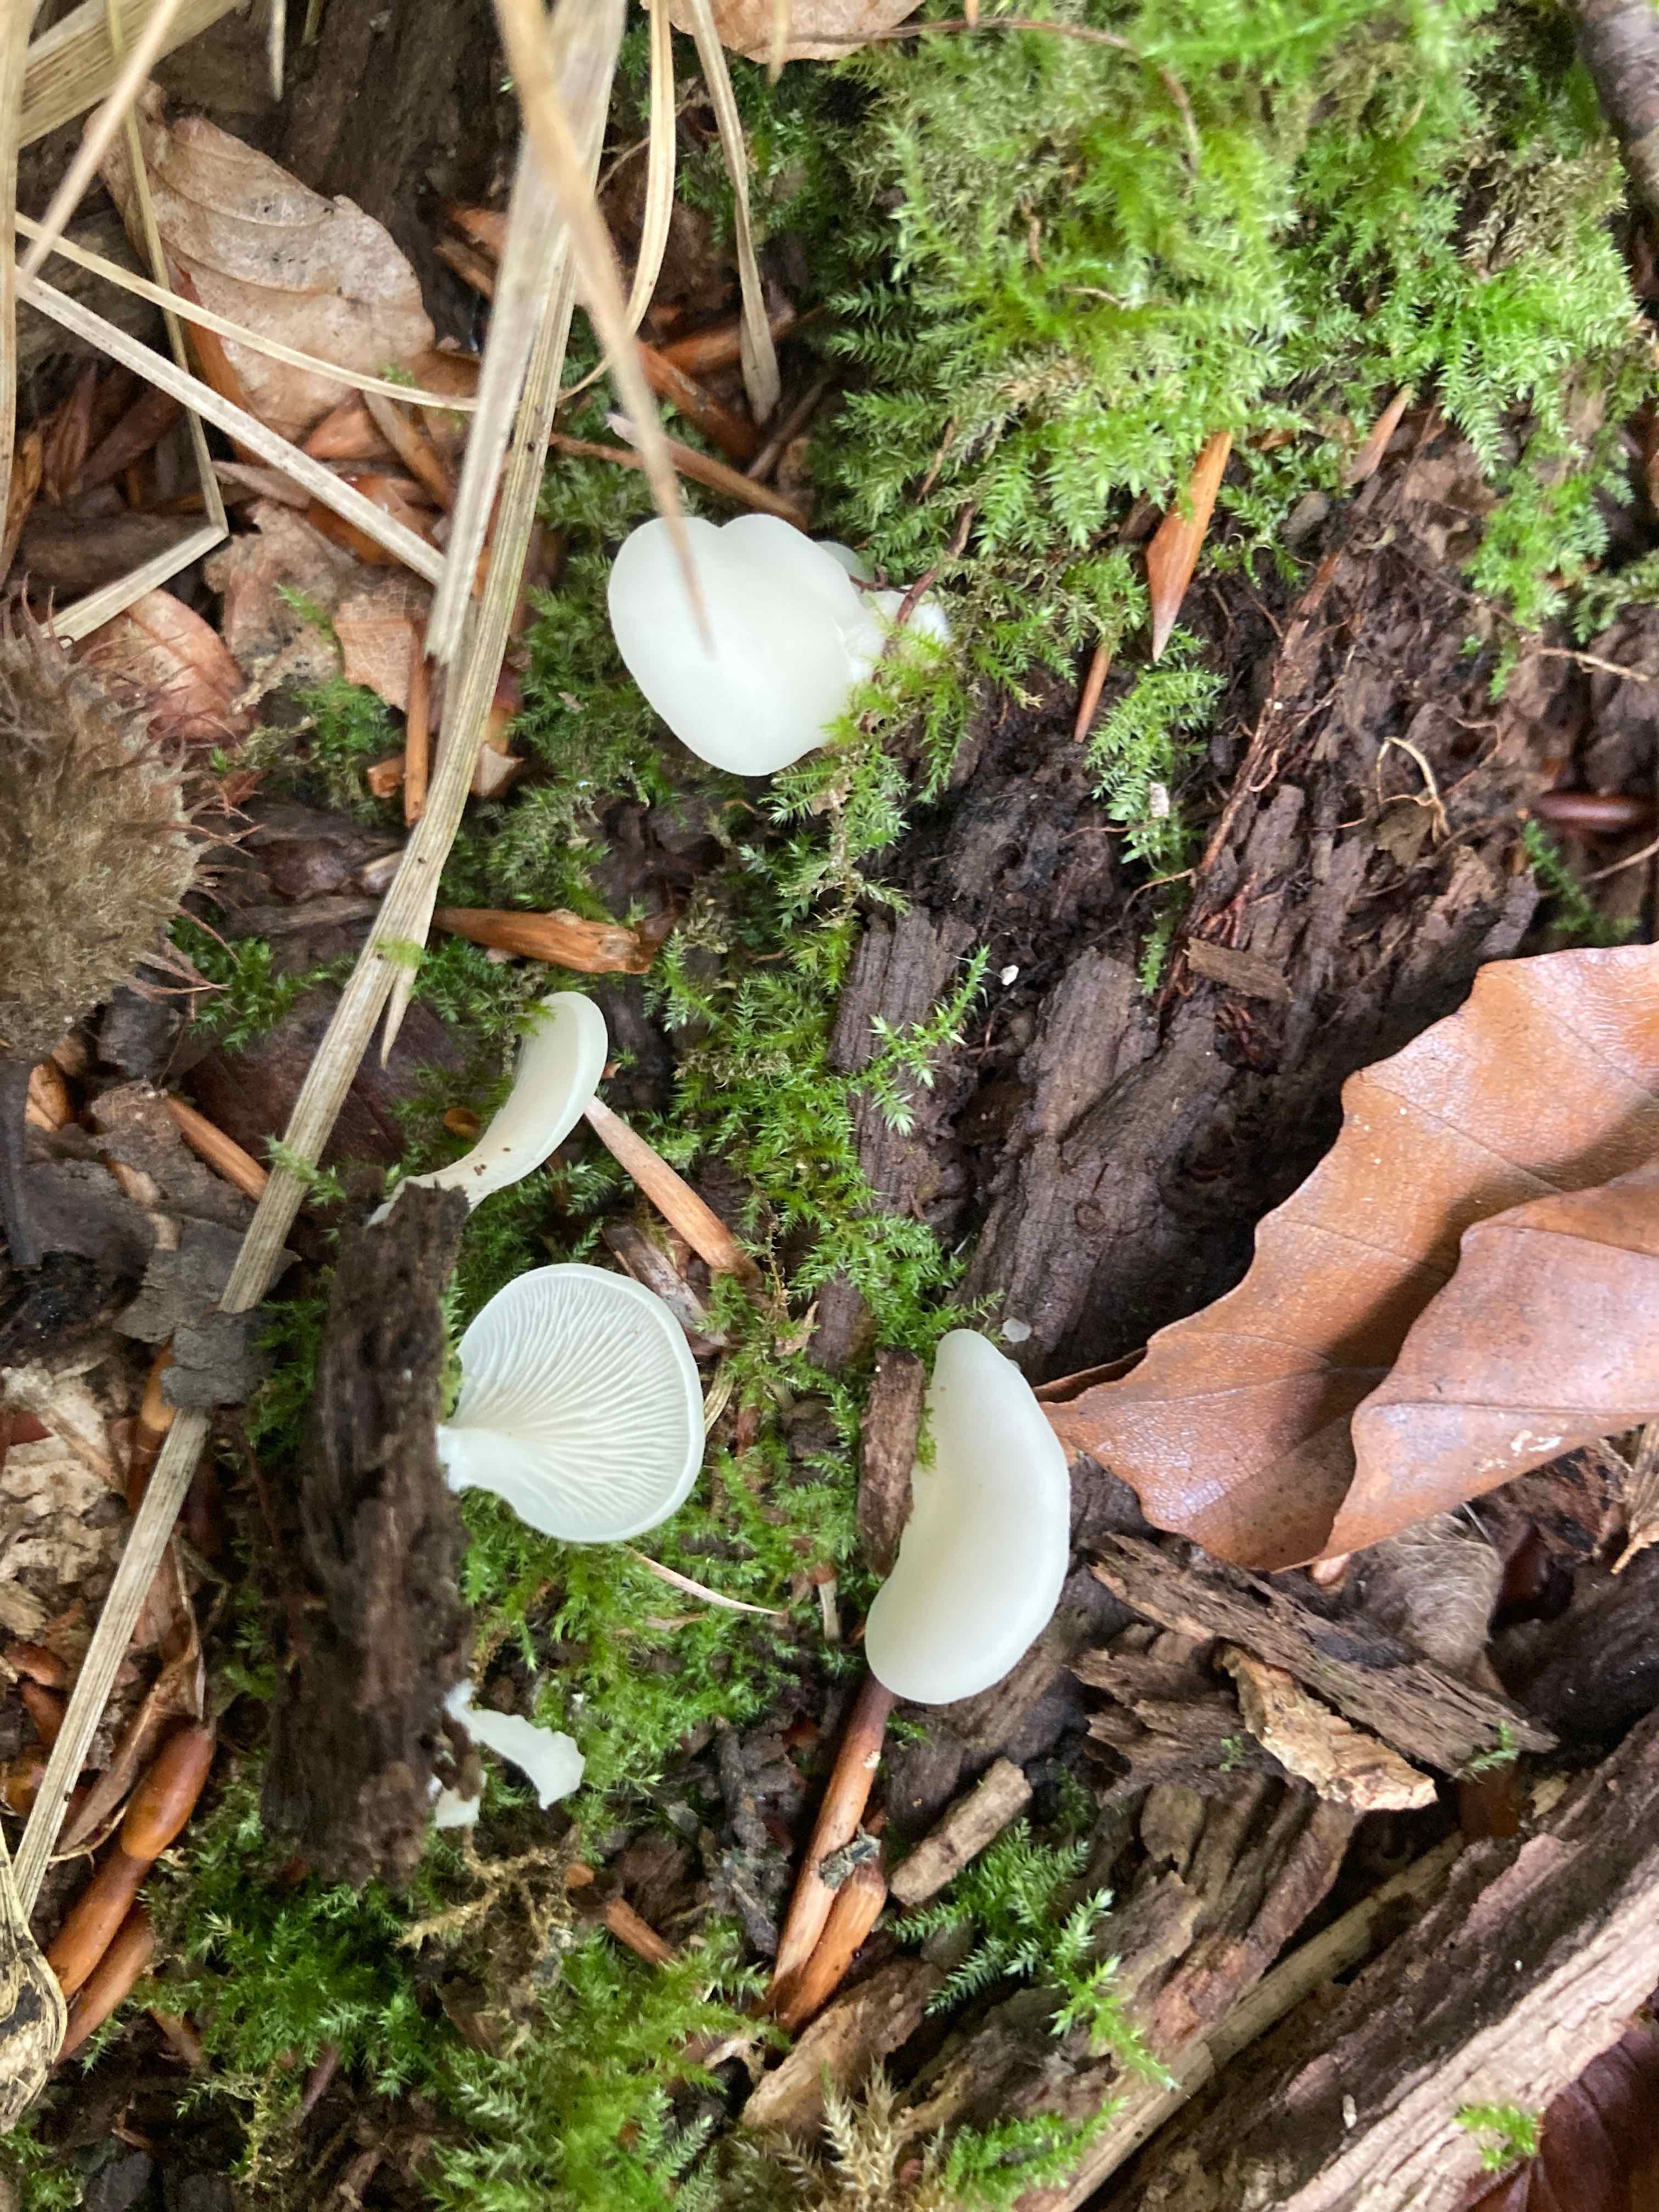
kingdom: Fungi
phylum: Basidiomycota
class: Agaricomycetes
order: Agaricales
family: Crepidotaceae
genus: Crepidotus
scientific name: Crepidotus applanatus
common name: tvefarvet muslingesvamp
